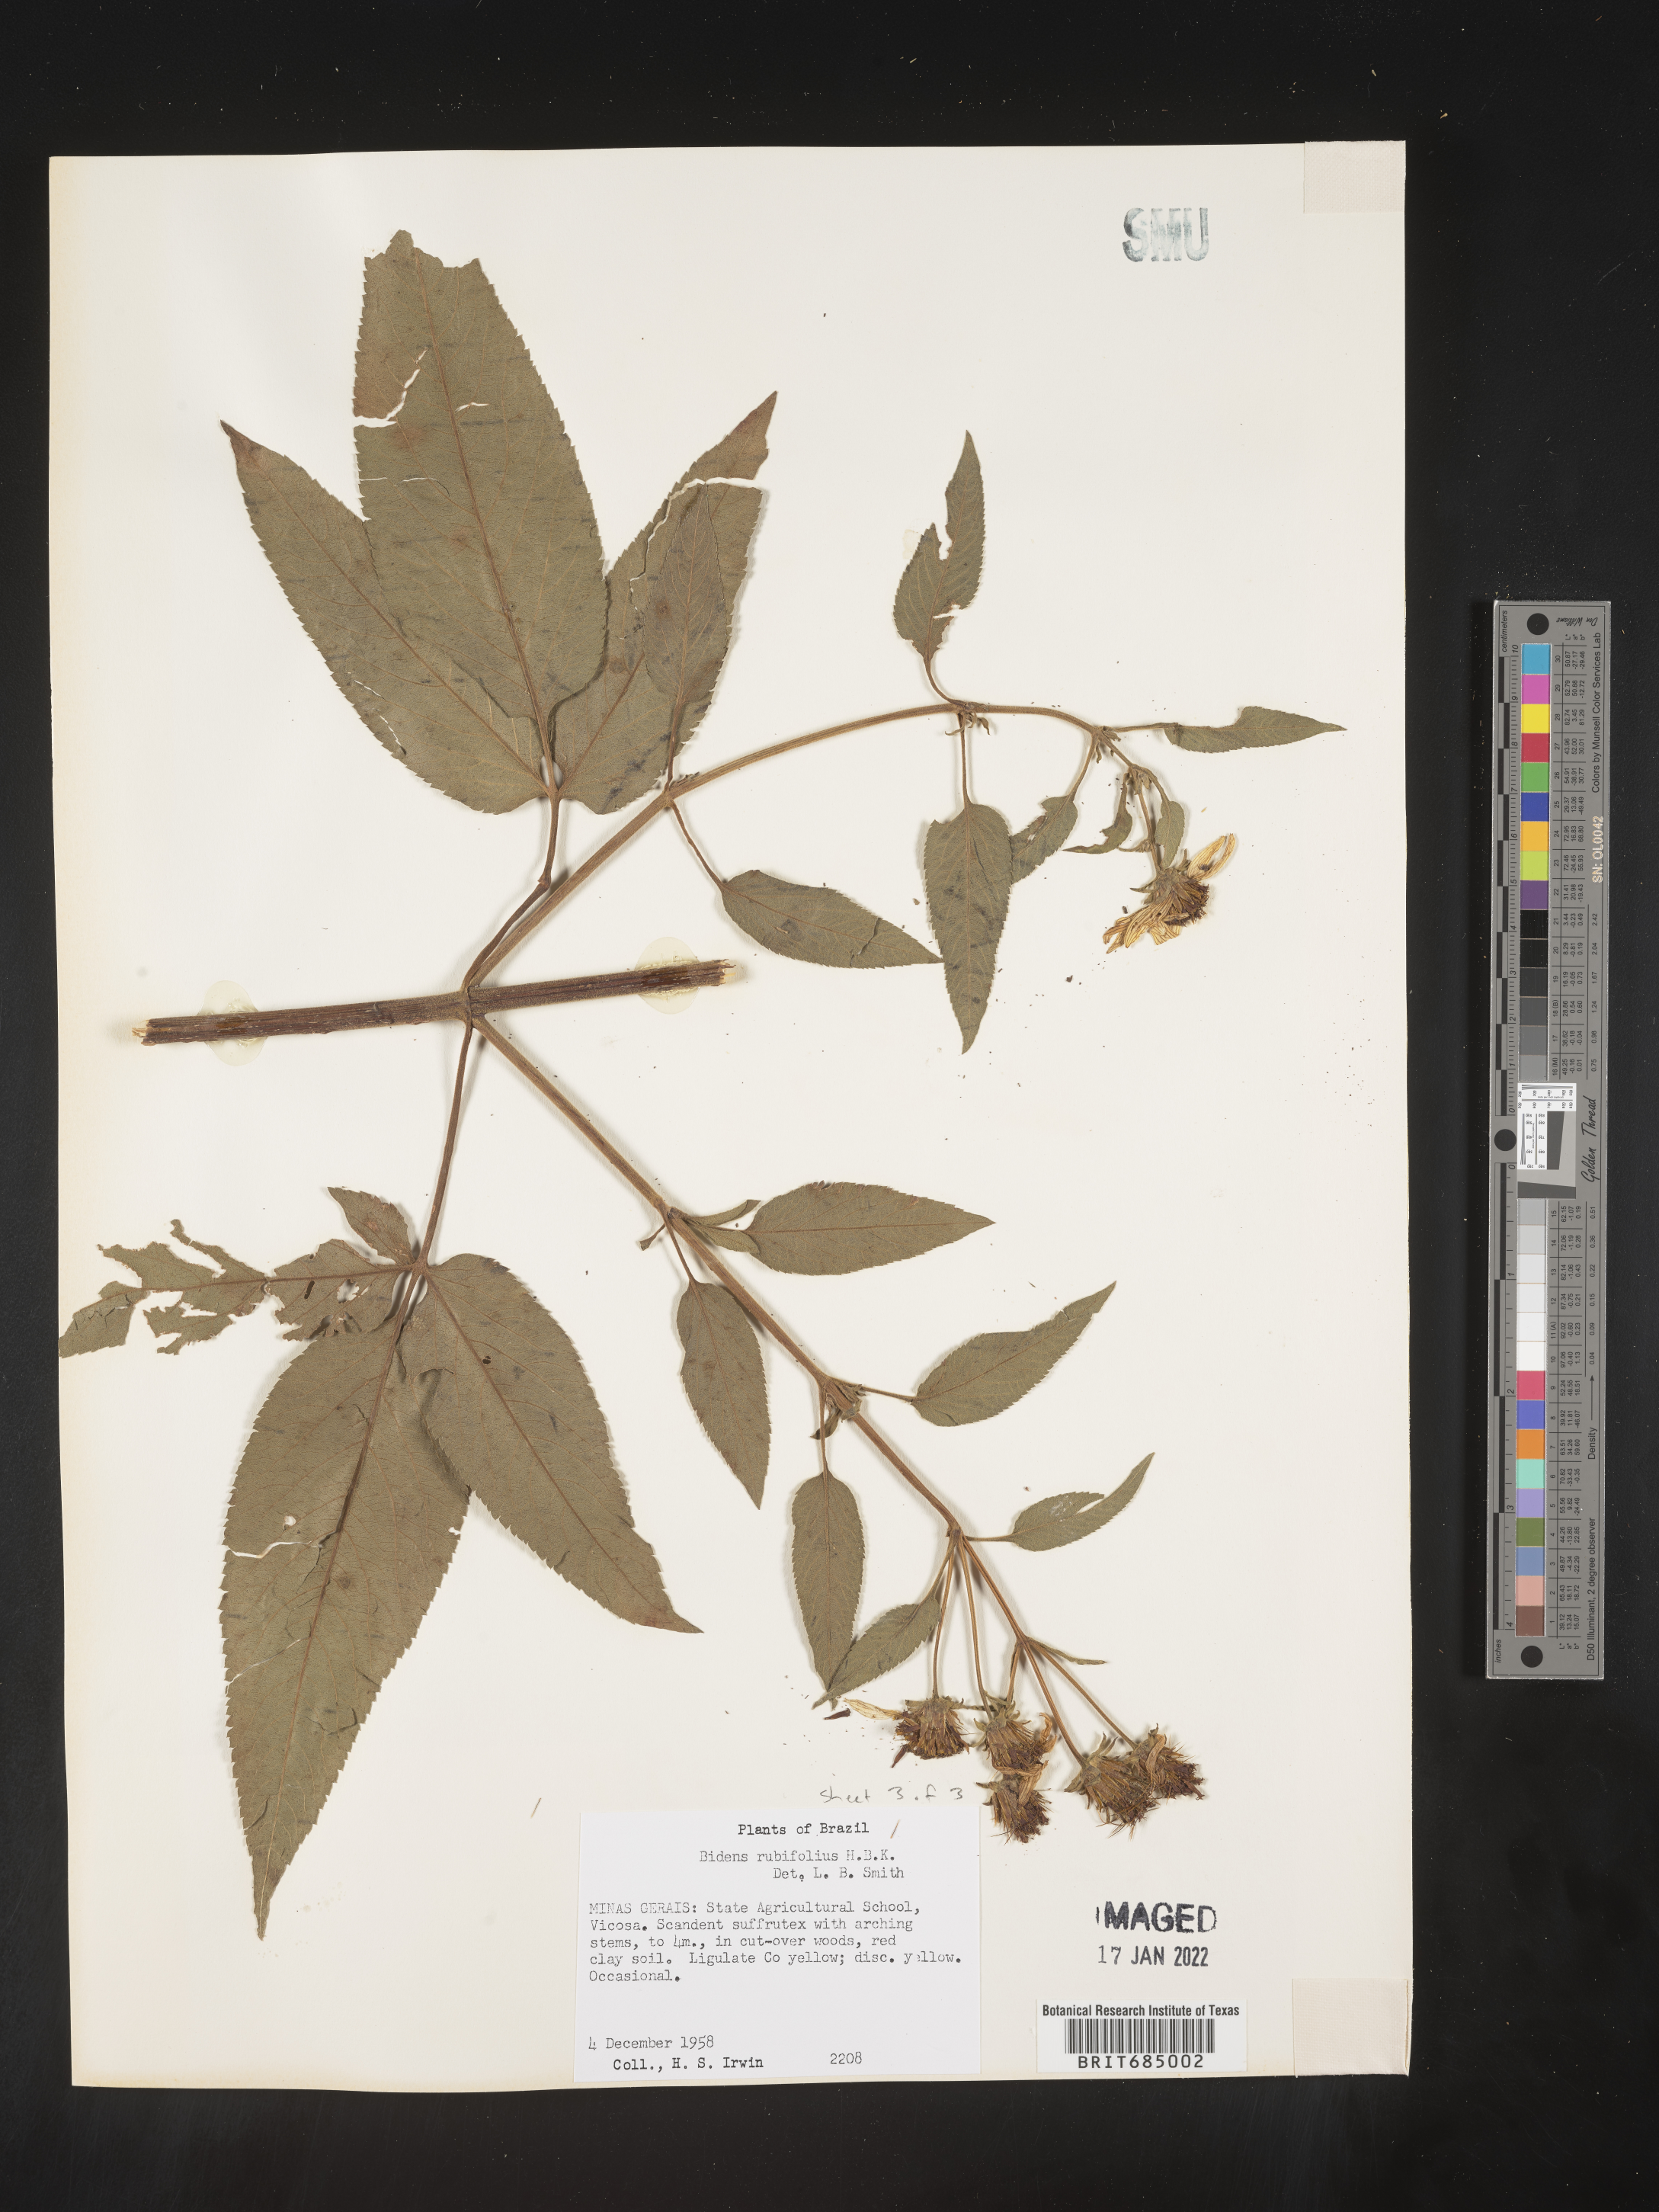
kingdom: Plantae
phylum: Tracheophyta
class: Magnoliopsida
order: Asterales
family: Asteraceae
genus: Bidens
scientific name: Bidens rubifolia
